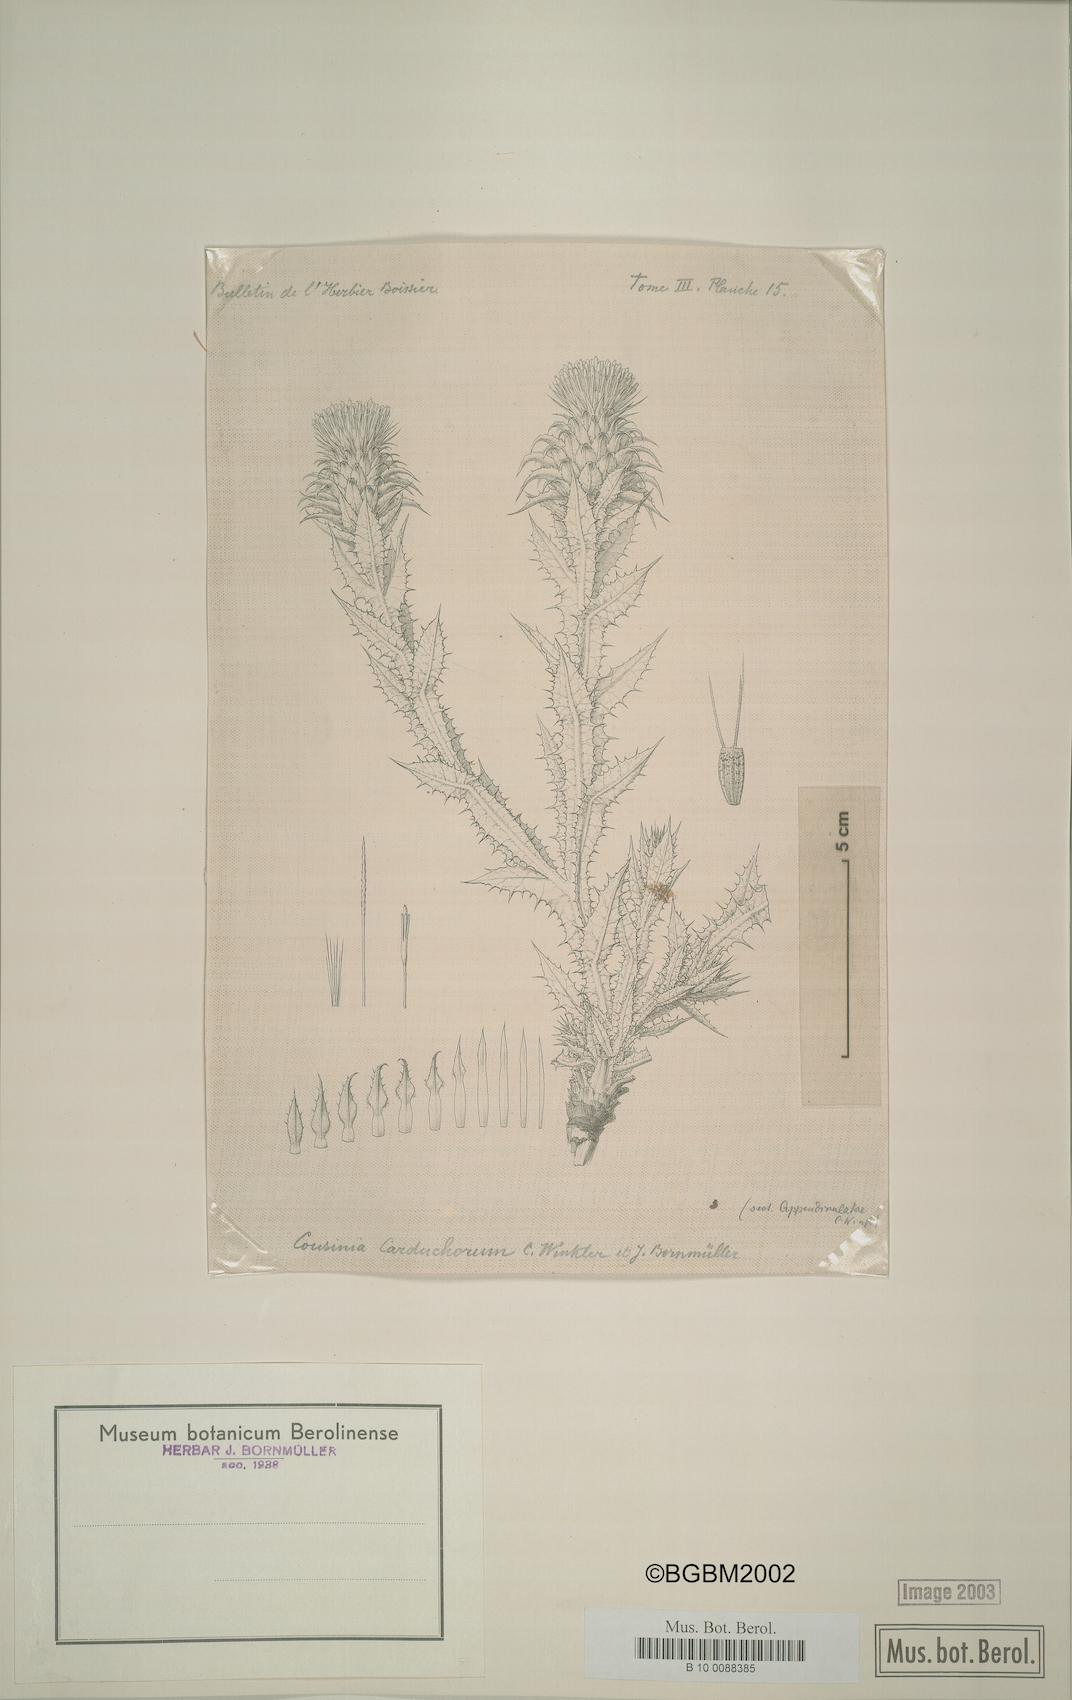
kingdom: Plantae
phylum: Tracheophyta
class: Magnoliopsida
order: Asterales
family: Asteraceae
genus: Cousinia
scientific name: Cousinia odontolepis
